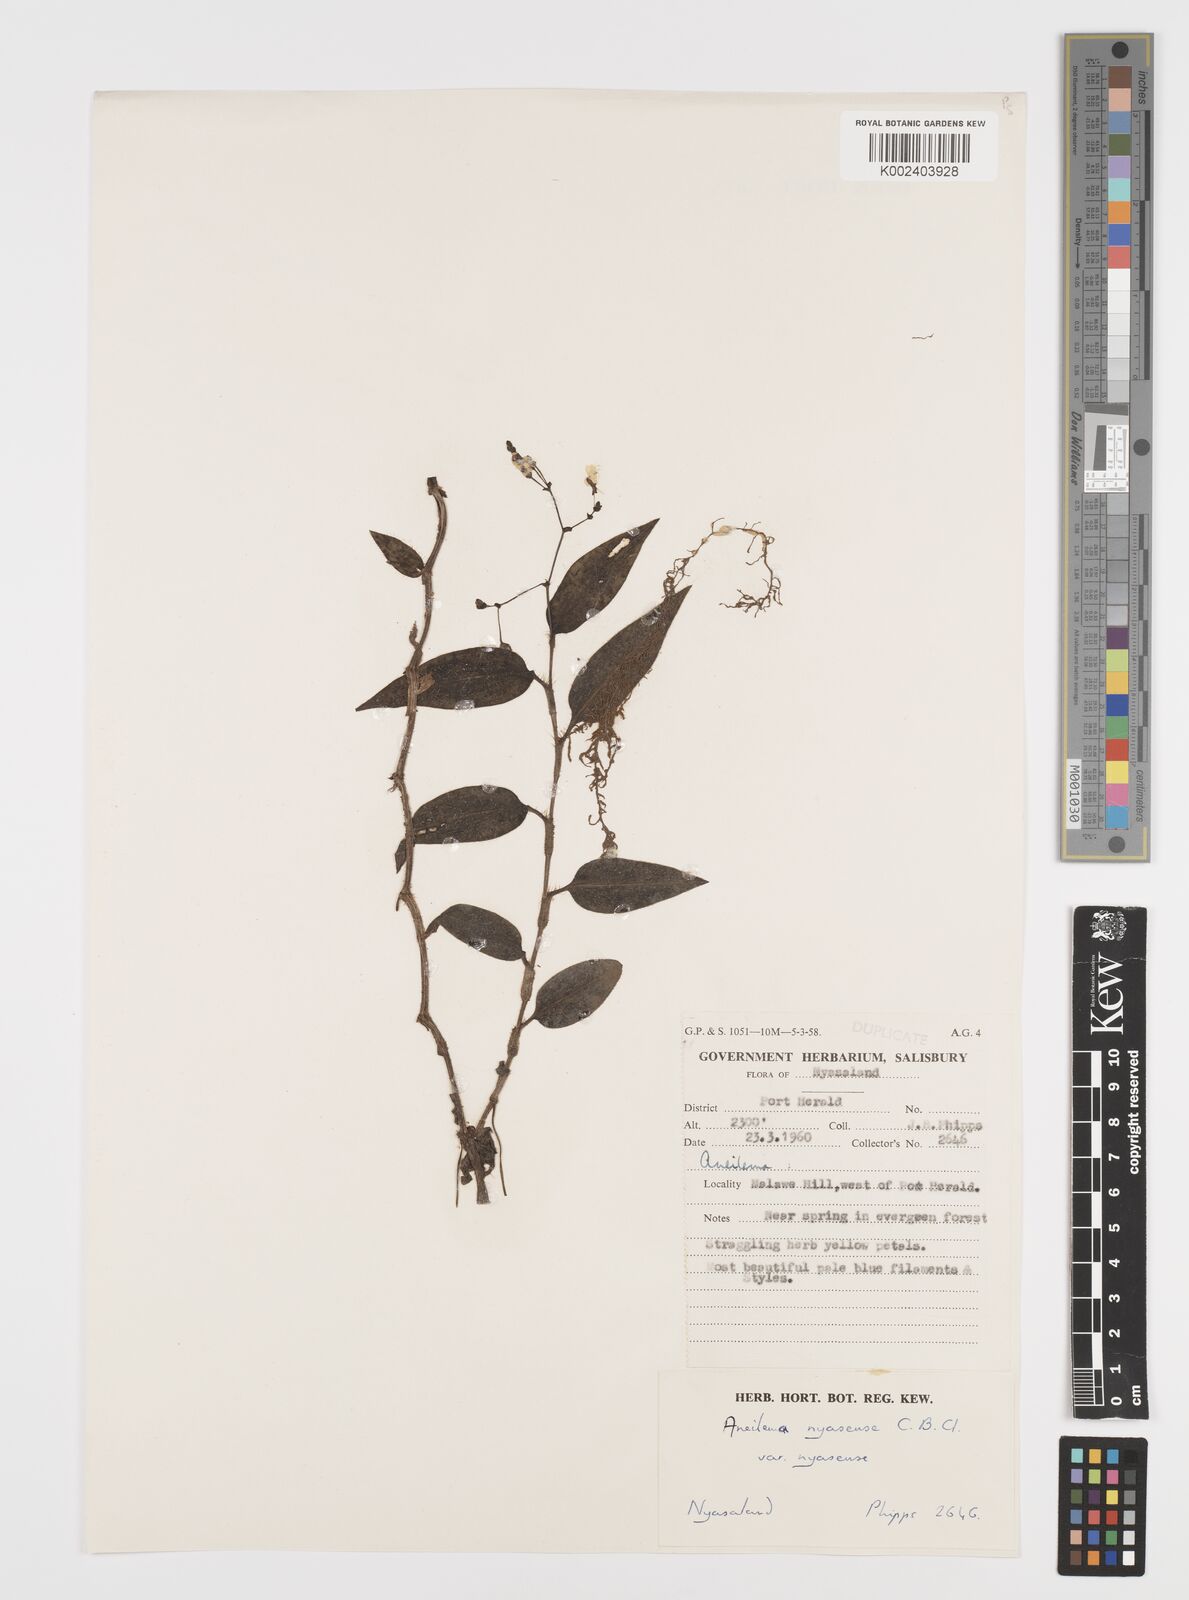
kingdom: Plantae
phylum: Tracheophyta
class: Liliopsida
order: Commelinales
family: Commelinaceae
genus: Aneilema
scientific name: Aneilema nyasense
